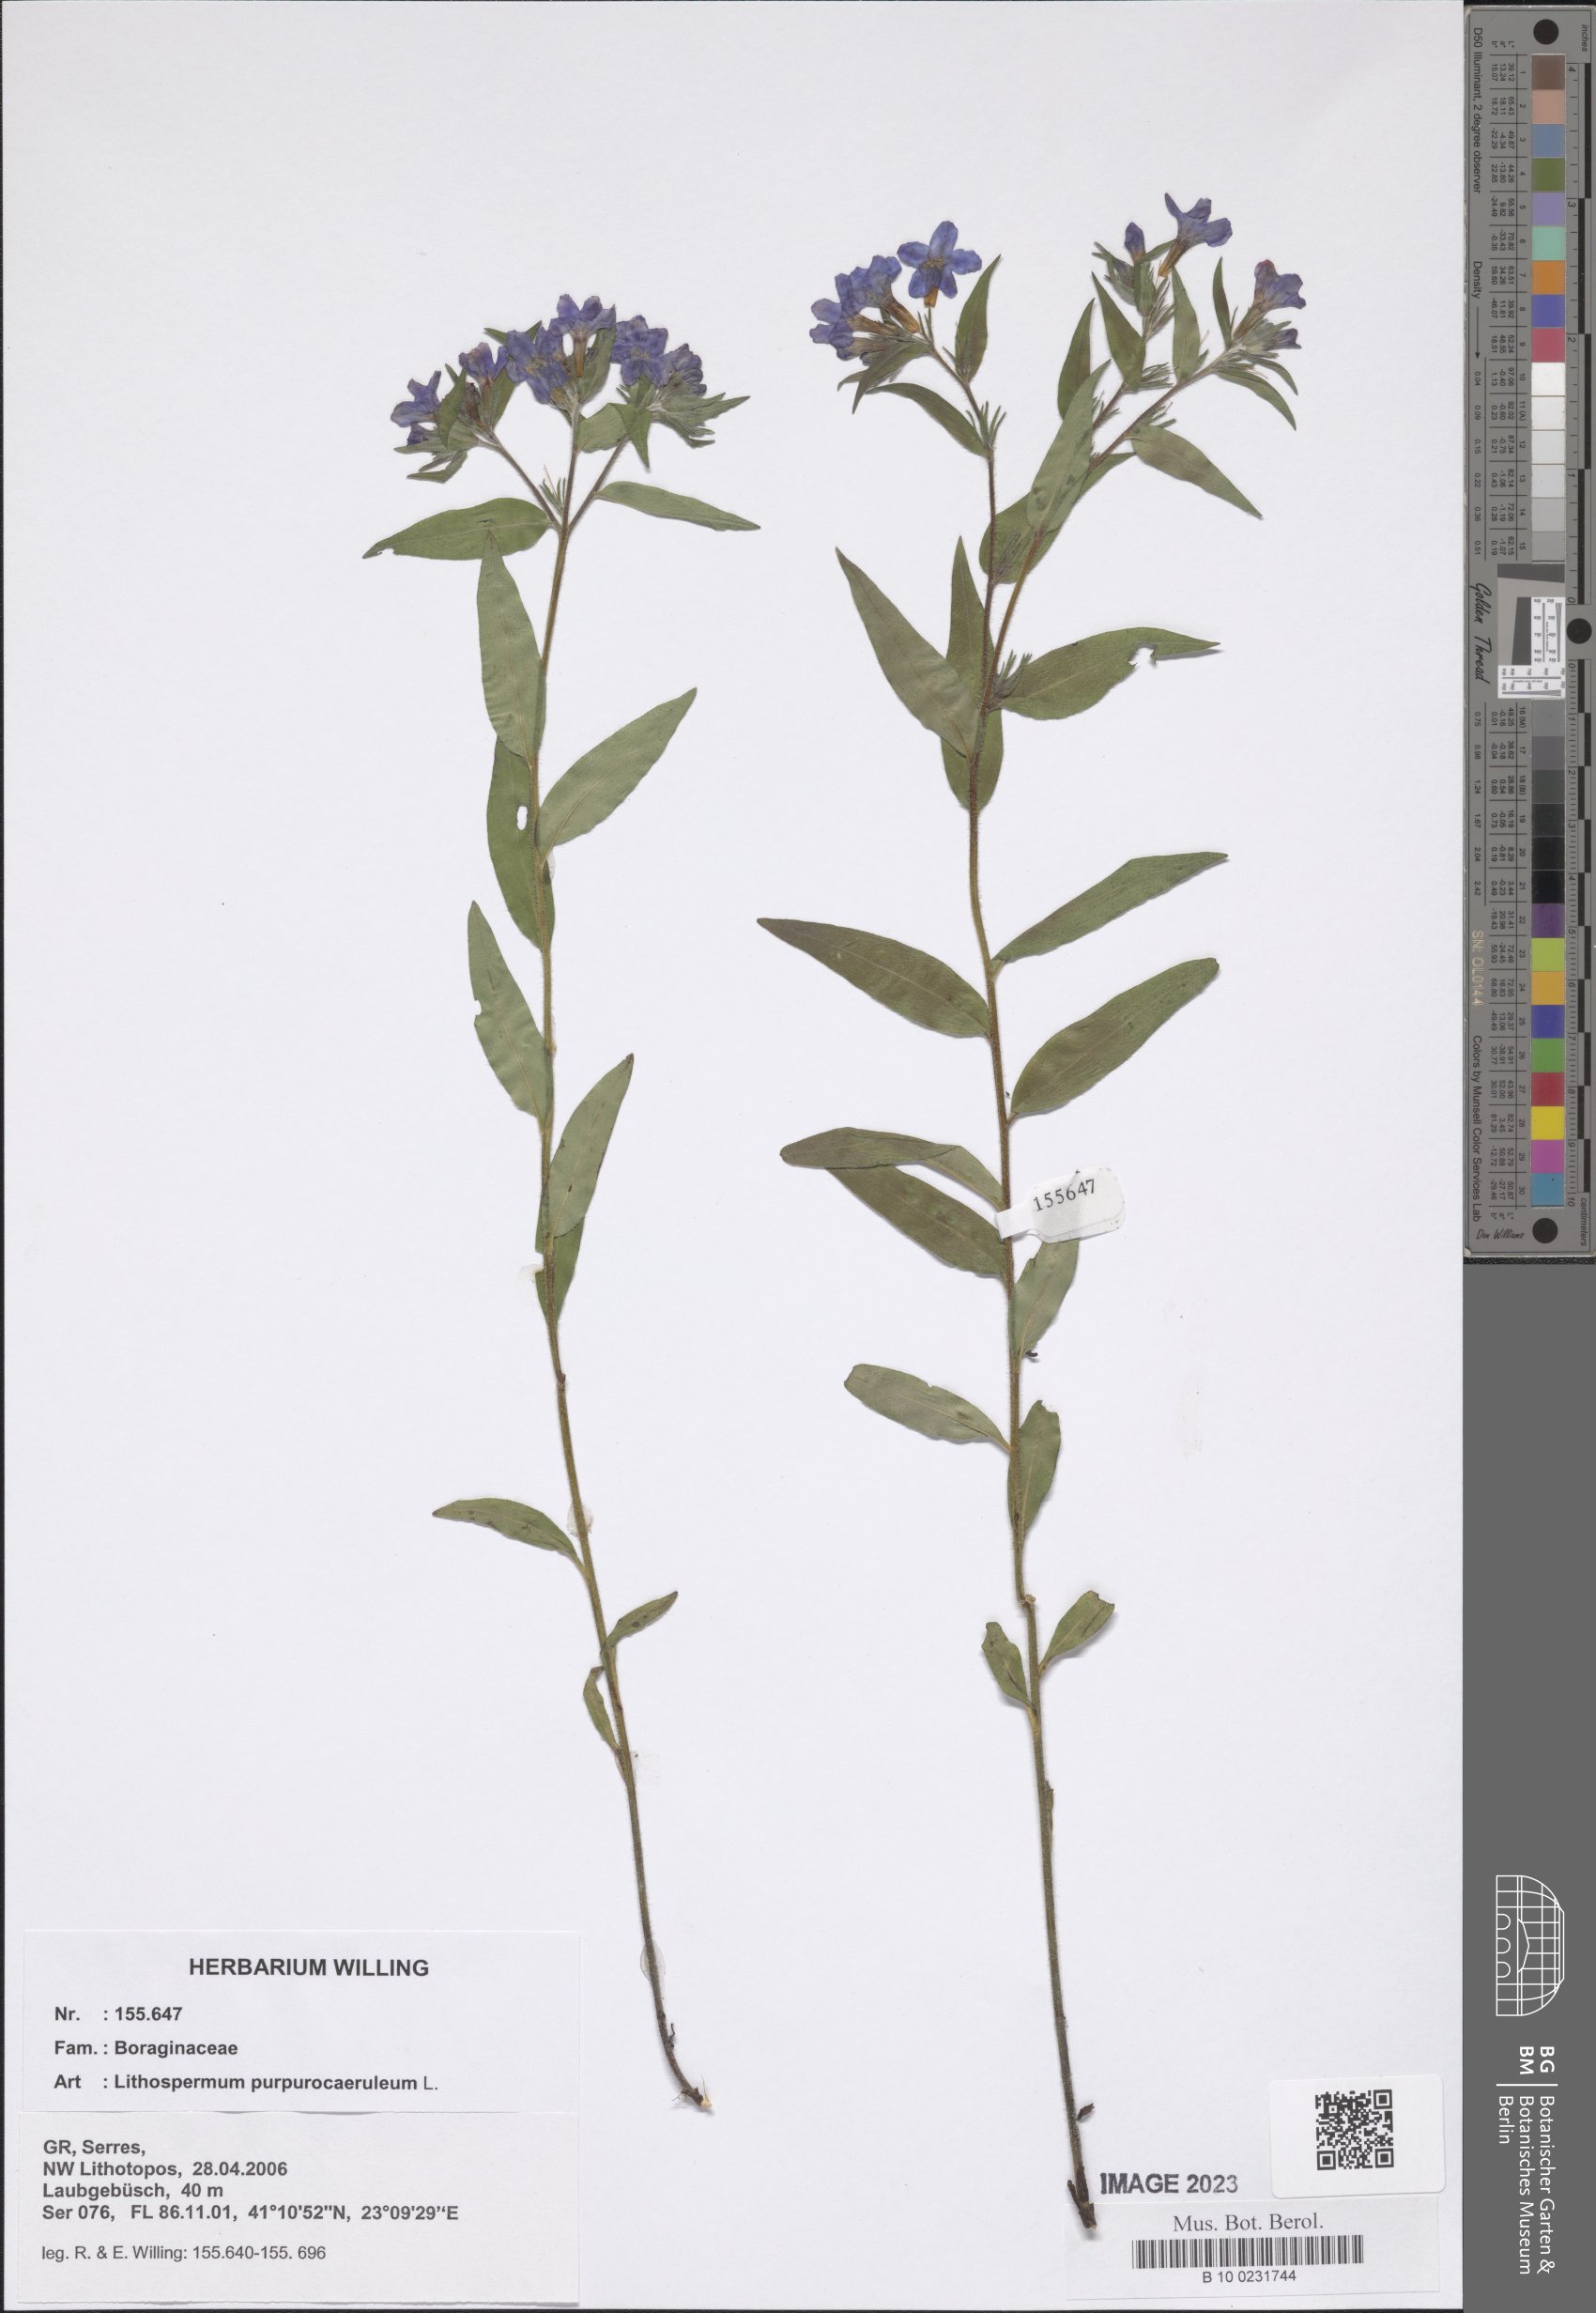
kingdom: Plantae
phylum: Tracheophyta
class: Magnoliopsida
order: Boraginales
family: Boraginaceae
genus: Aegonychon
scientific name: Aegonychon purpurocaeruleum
